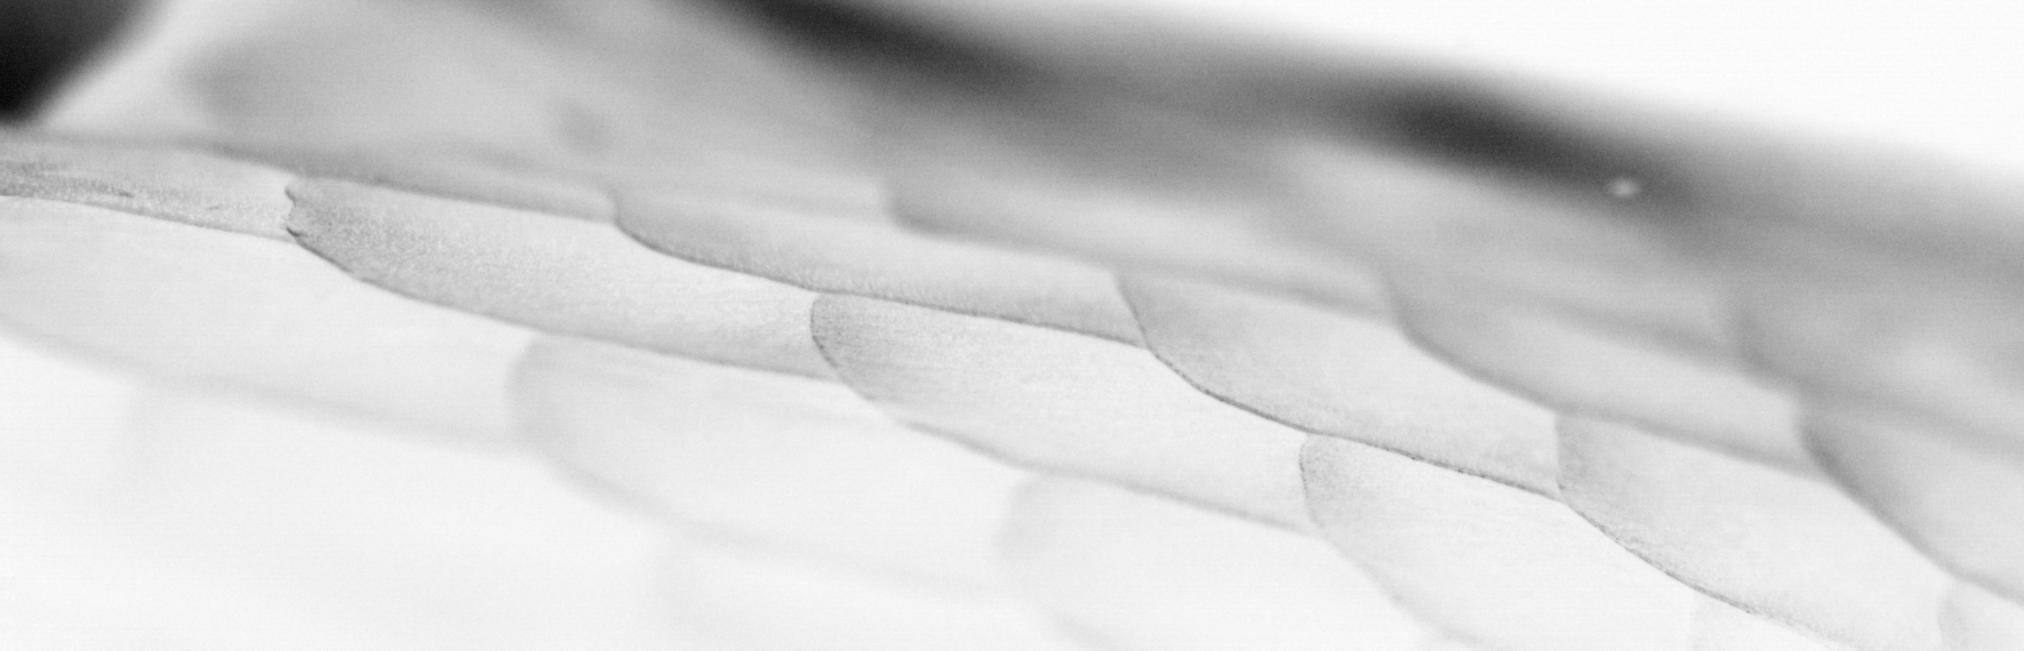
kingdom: Animalia
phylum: Chordata
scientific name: Chordata
